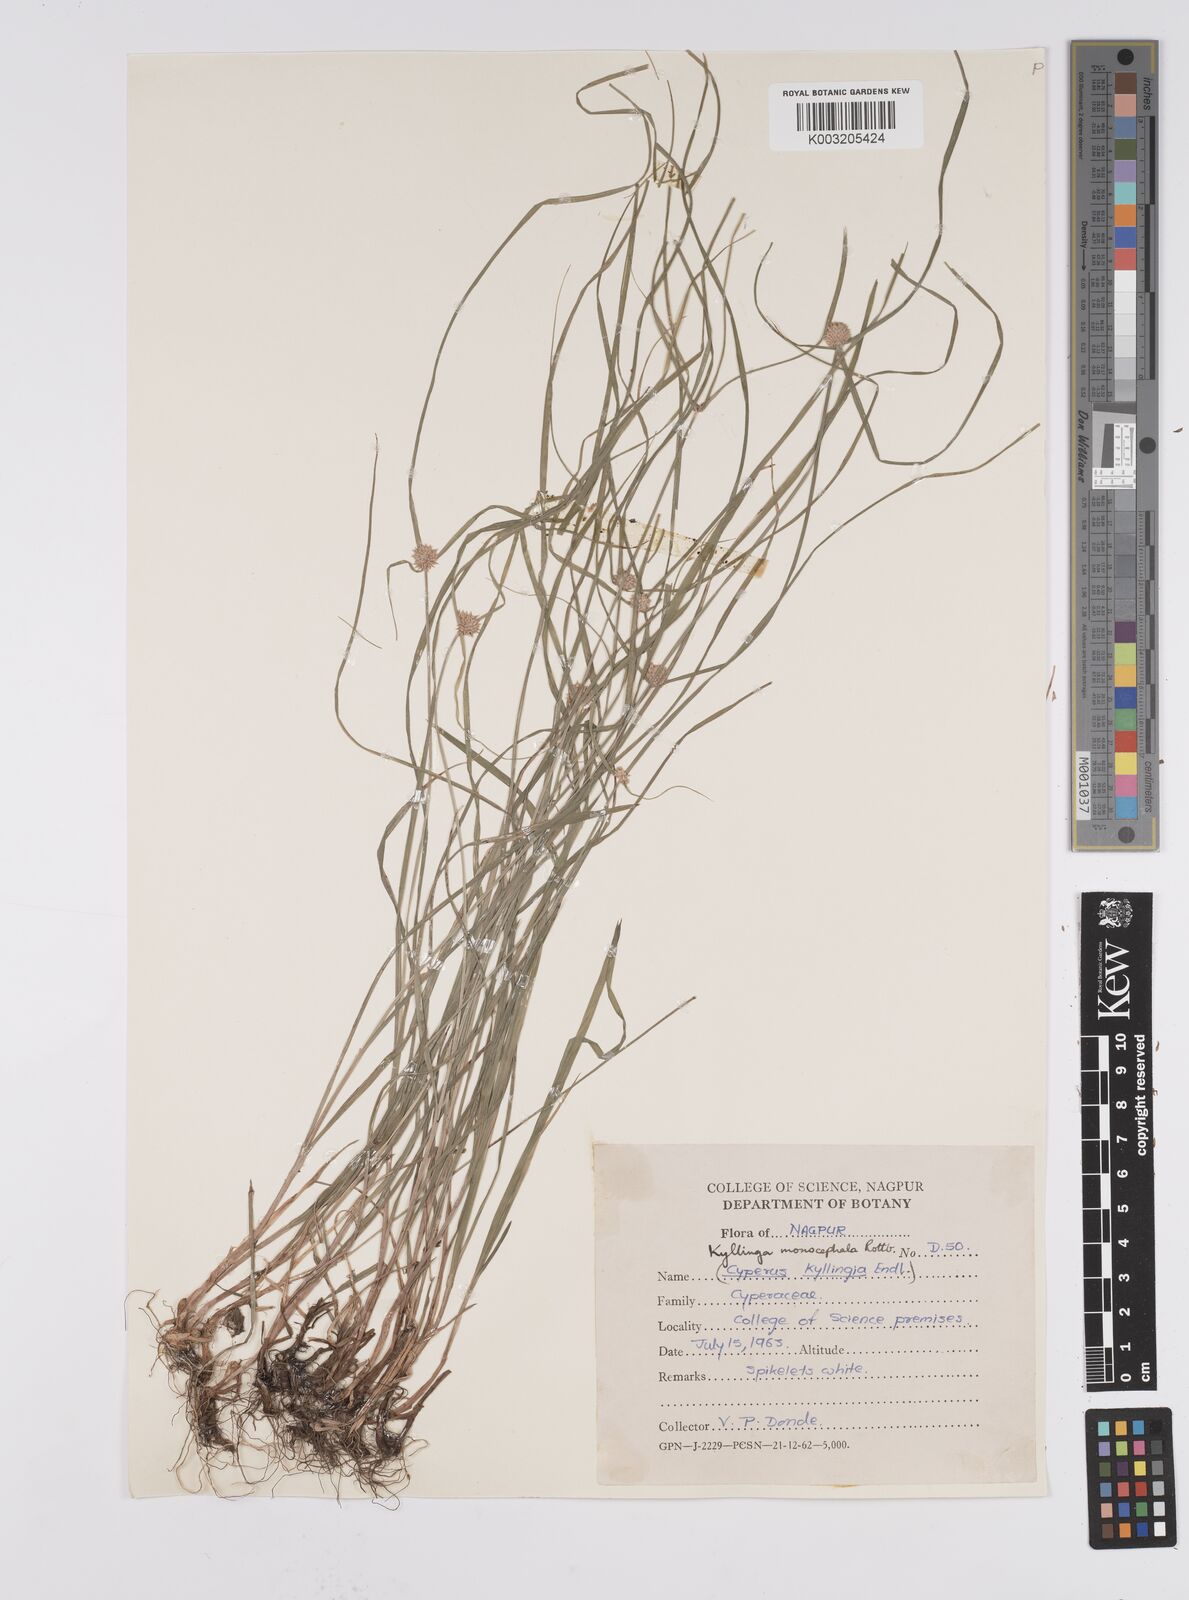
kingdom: Plantae
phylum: Tracheophyta
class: Liliopsida
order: Poales
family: Cyperaceae
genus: Cyperus
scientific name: Cyperus nemoralis
